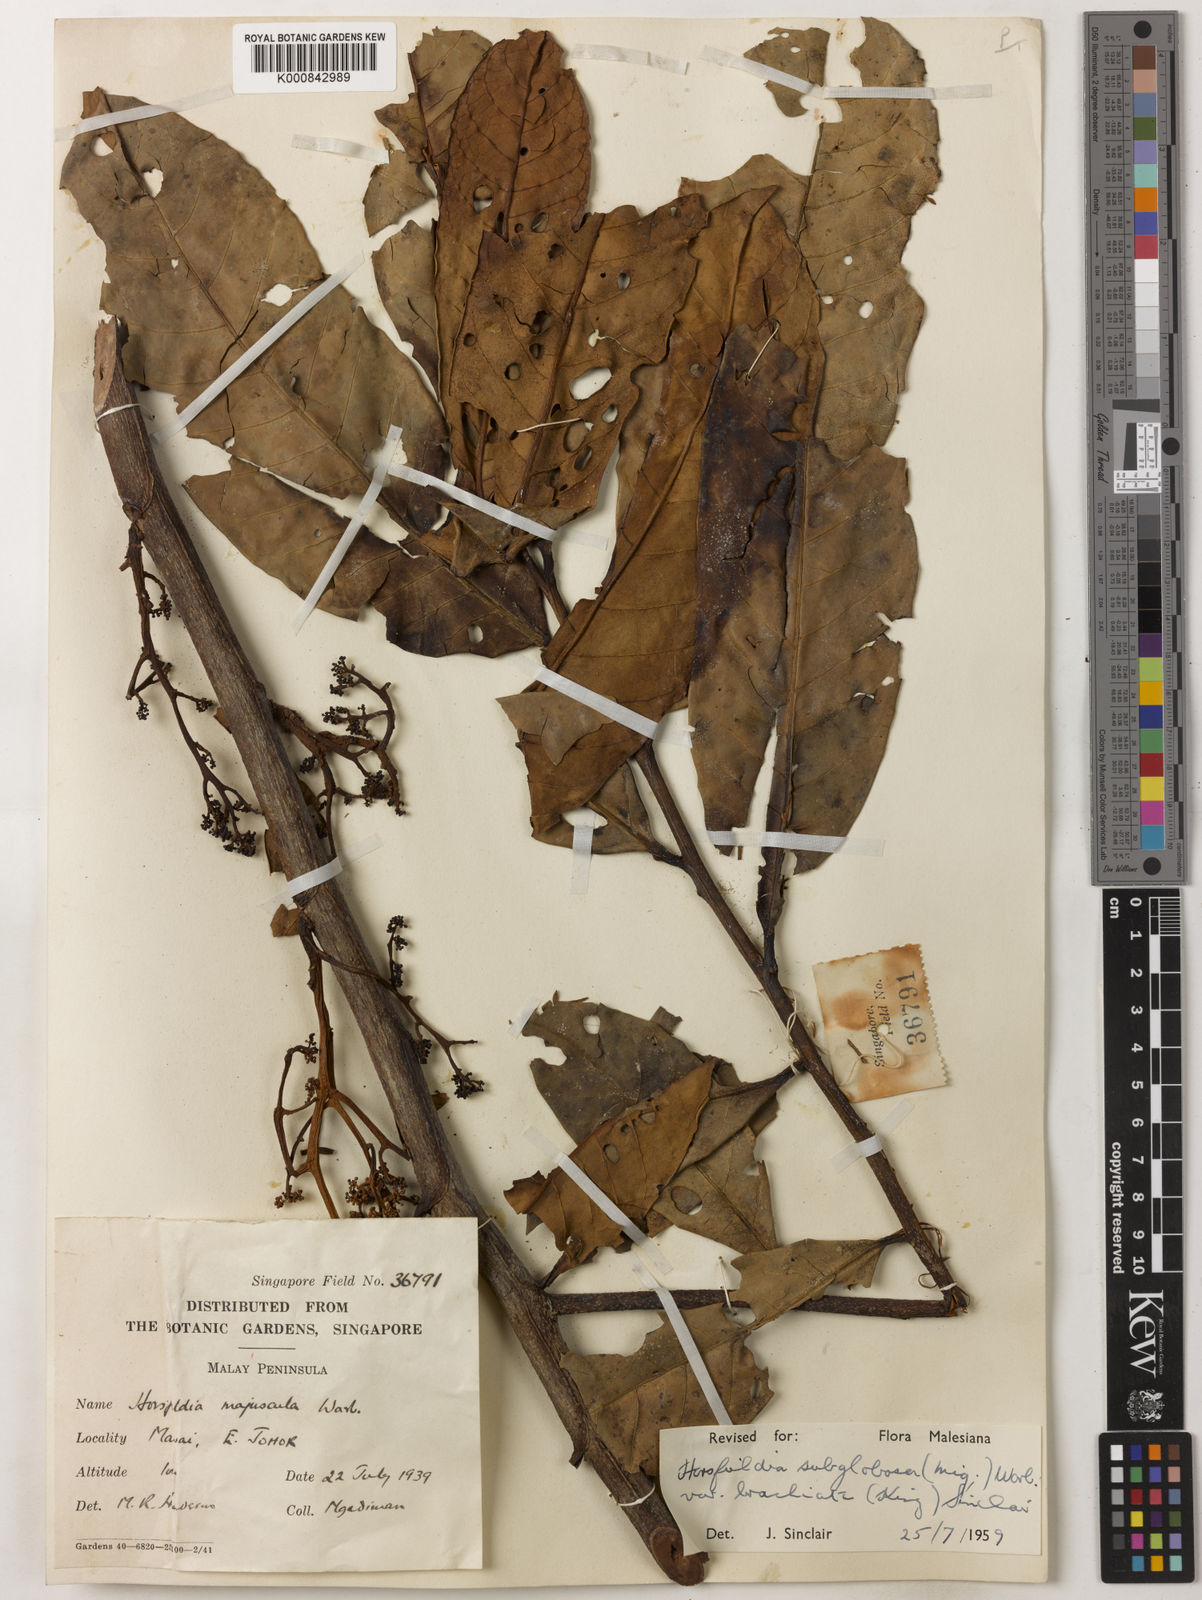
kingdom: Plantae
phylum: Tracheophyta
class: Magnoliopsida
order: Magnoliales
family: Myristicaceae
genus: Horsfieldia
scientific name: Horsfieldia brachiata
